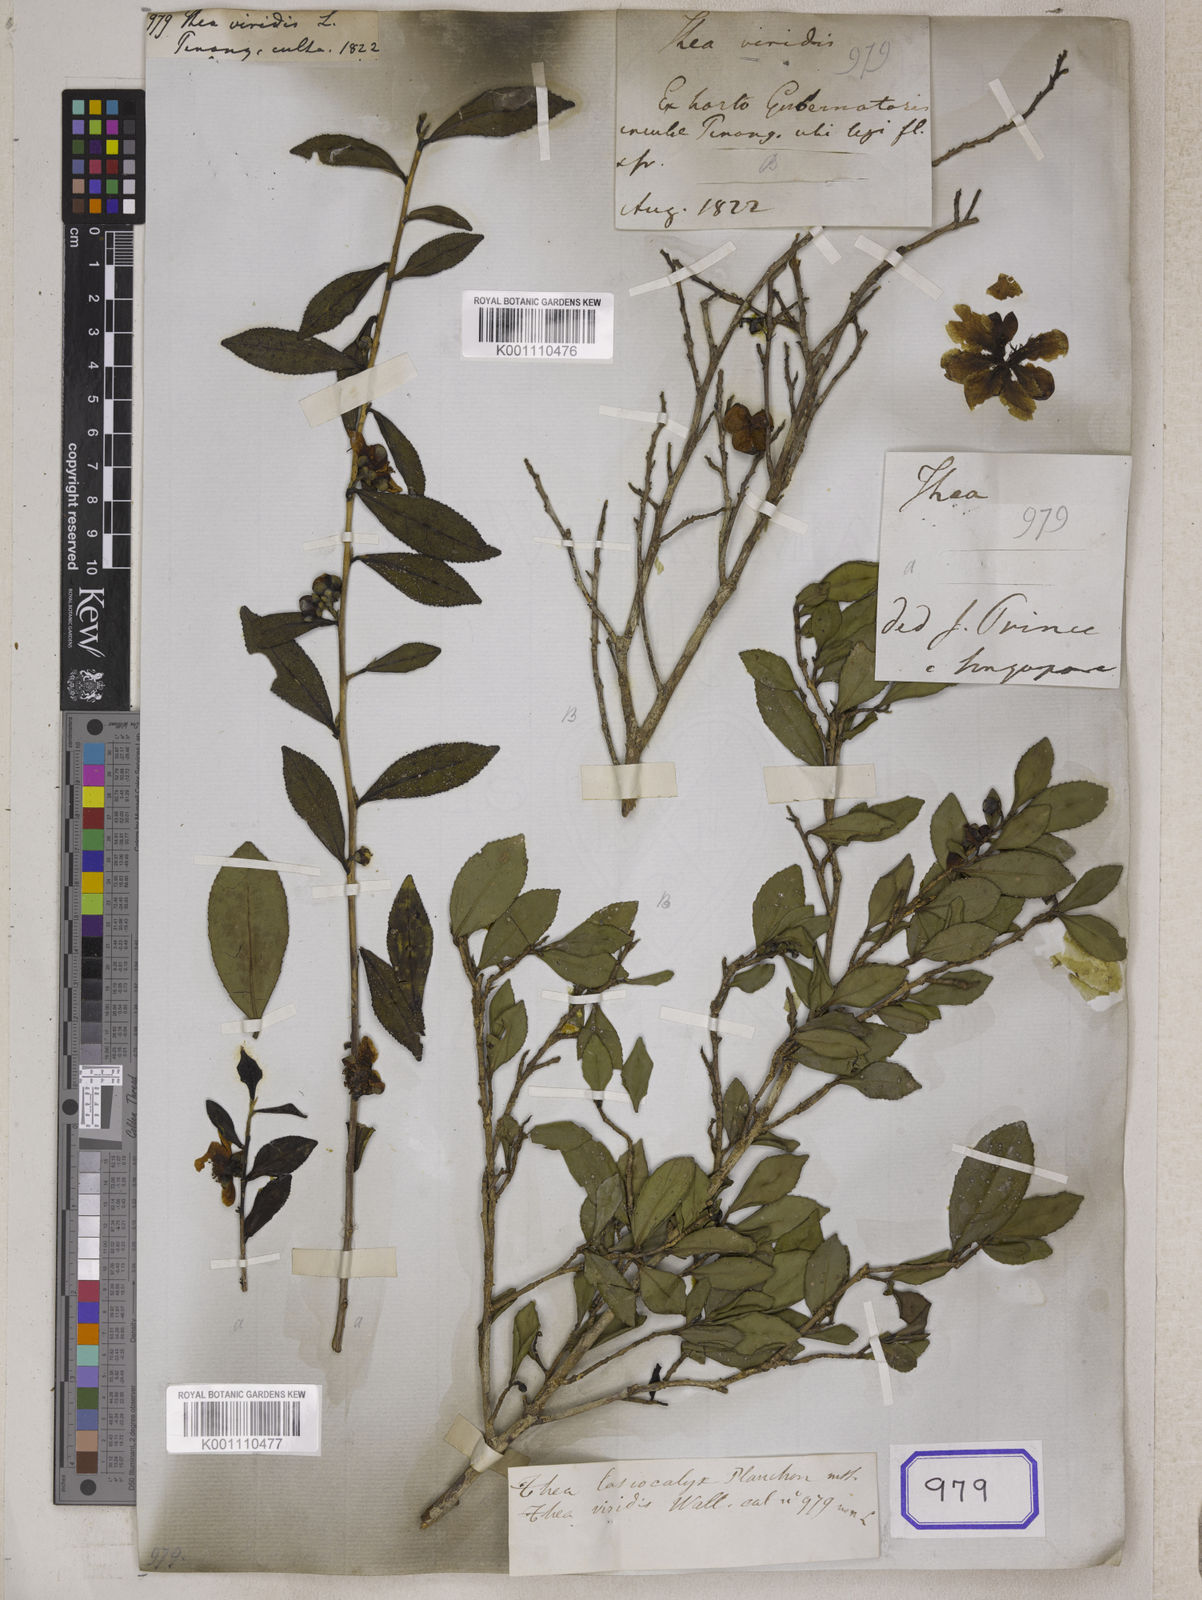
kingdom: Plantae
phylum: Tracheophyta
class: Magnoliopsida
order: Ericales
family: Theaceae
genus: Camellia
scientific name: Camellia sinensis
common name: Tea
